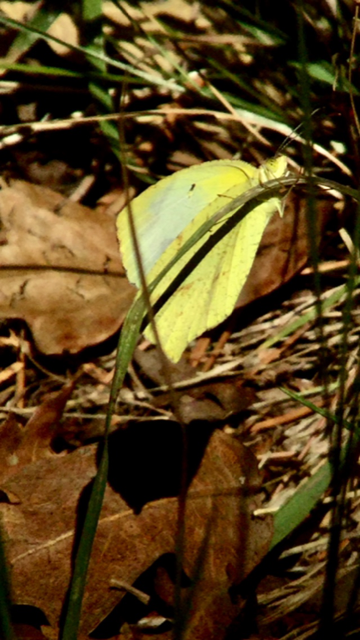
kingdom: Animalia
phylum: Arthropoda
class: Insecta
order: Lepidoptera
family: Pieridae
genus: Eurema
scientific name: Eurema mexicana
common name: Mexican Yellow
